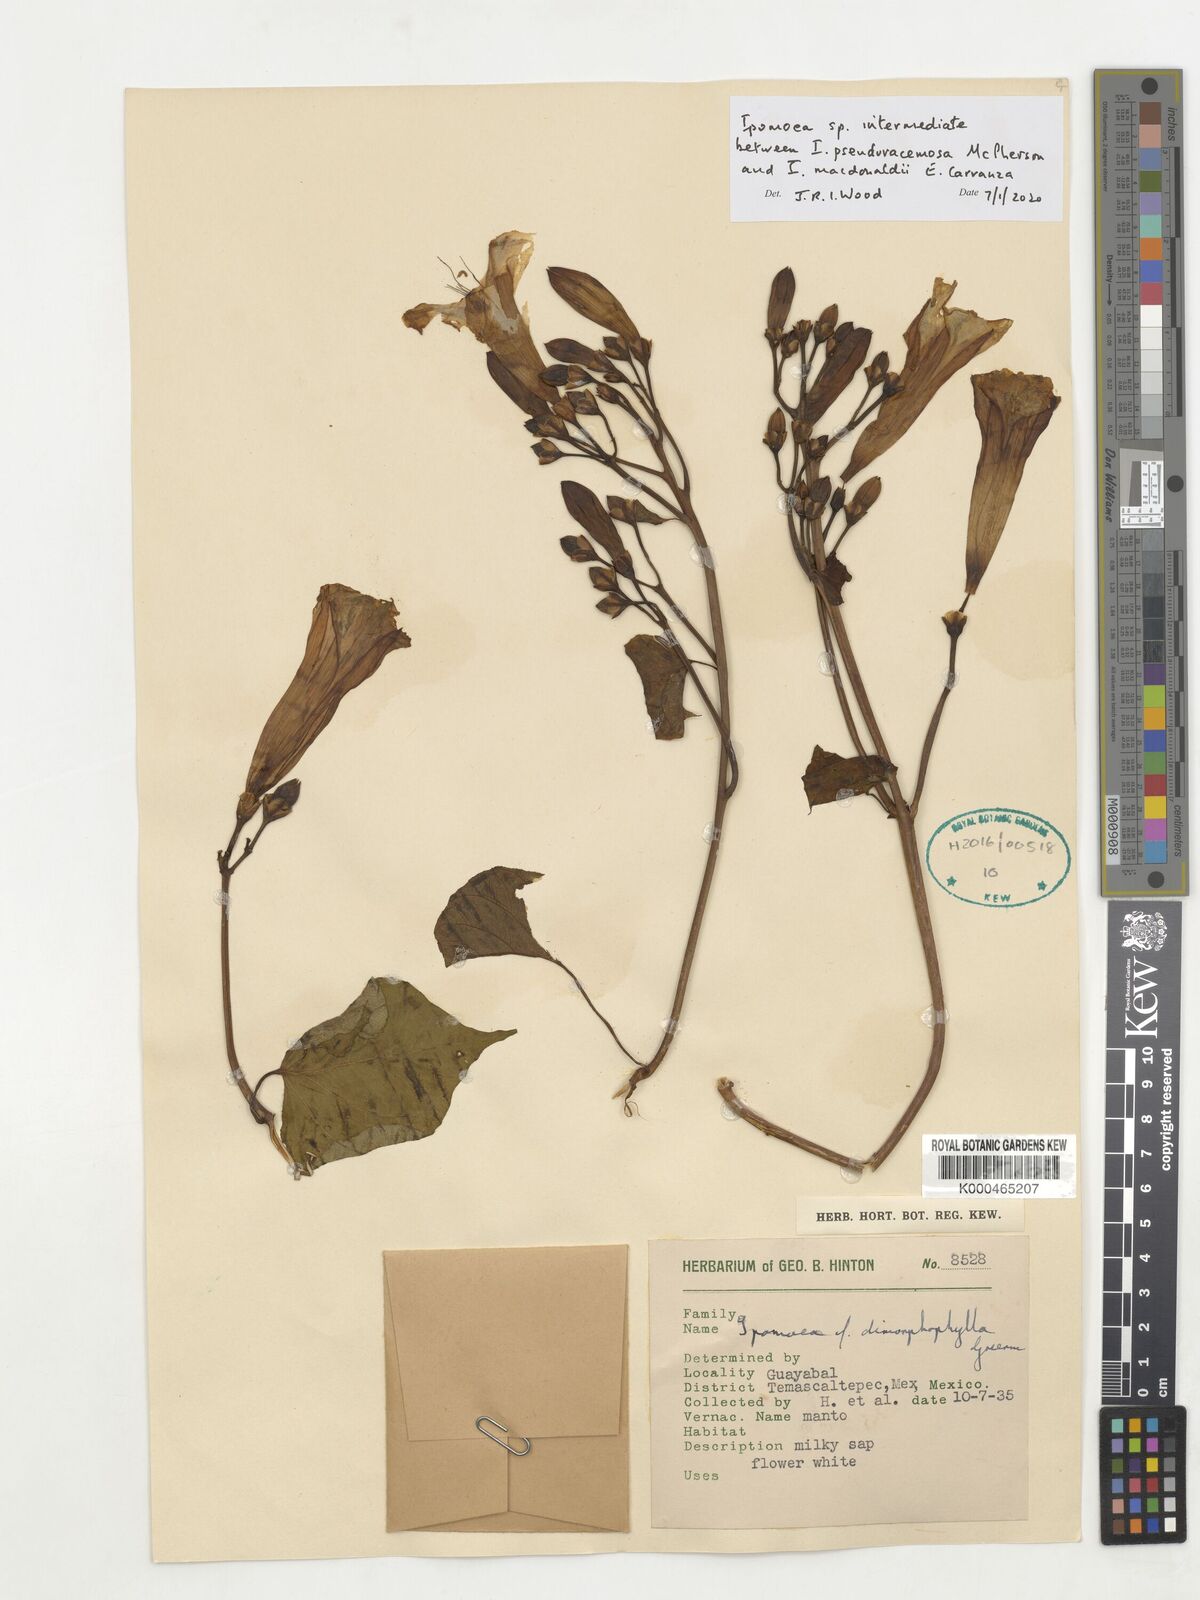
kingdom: Plantae
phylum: Tracheophyta
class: Magnoliopsida
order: Solanales
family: Convolvulaceae
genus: Ipomoea
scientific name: Ipomoea
